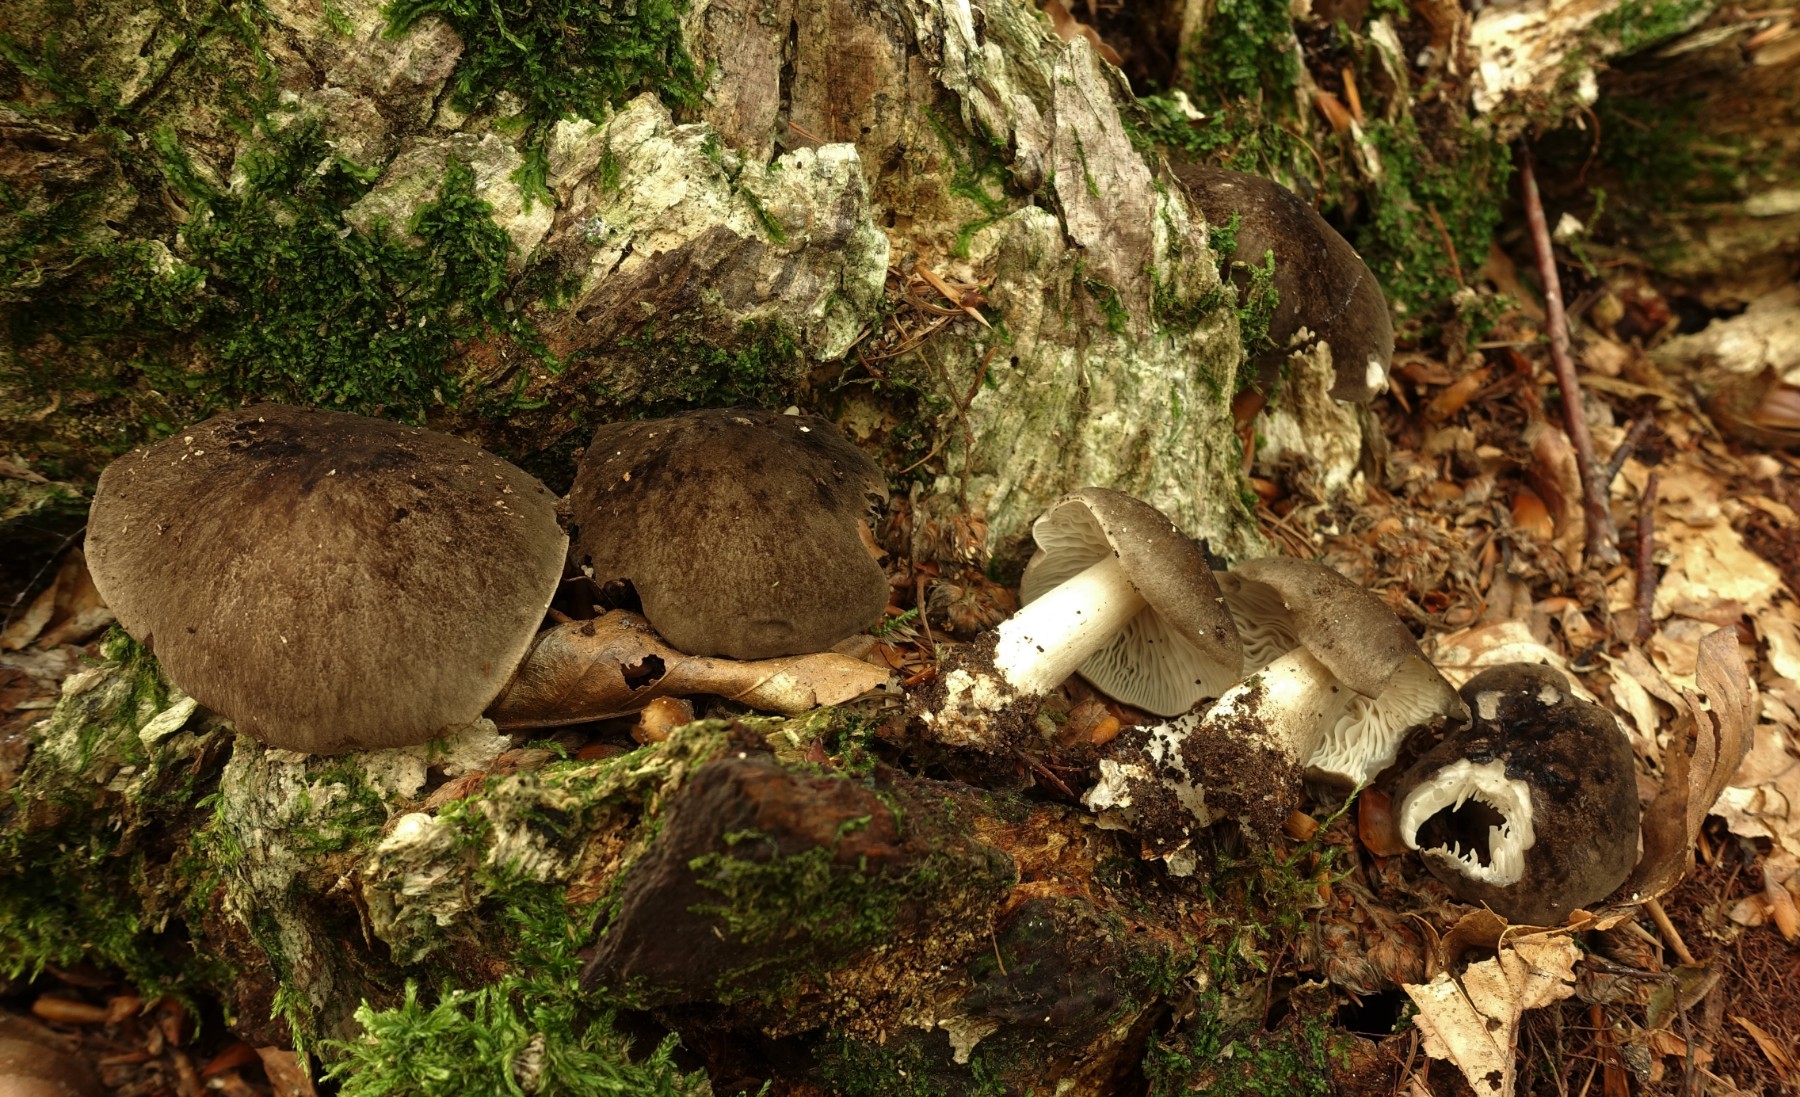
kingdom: Fungi
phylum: Basidiomycota
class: Agaricomycetes
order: Agaricales
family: Tricholomataceae
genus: Megacollybia
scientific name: Megacollybia platyphylla
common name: bredbladet væbnerhat
